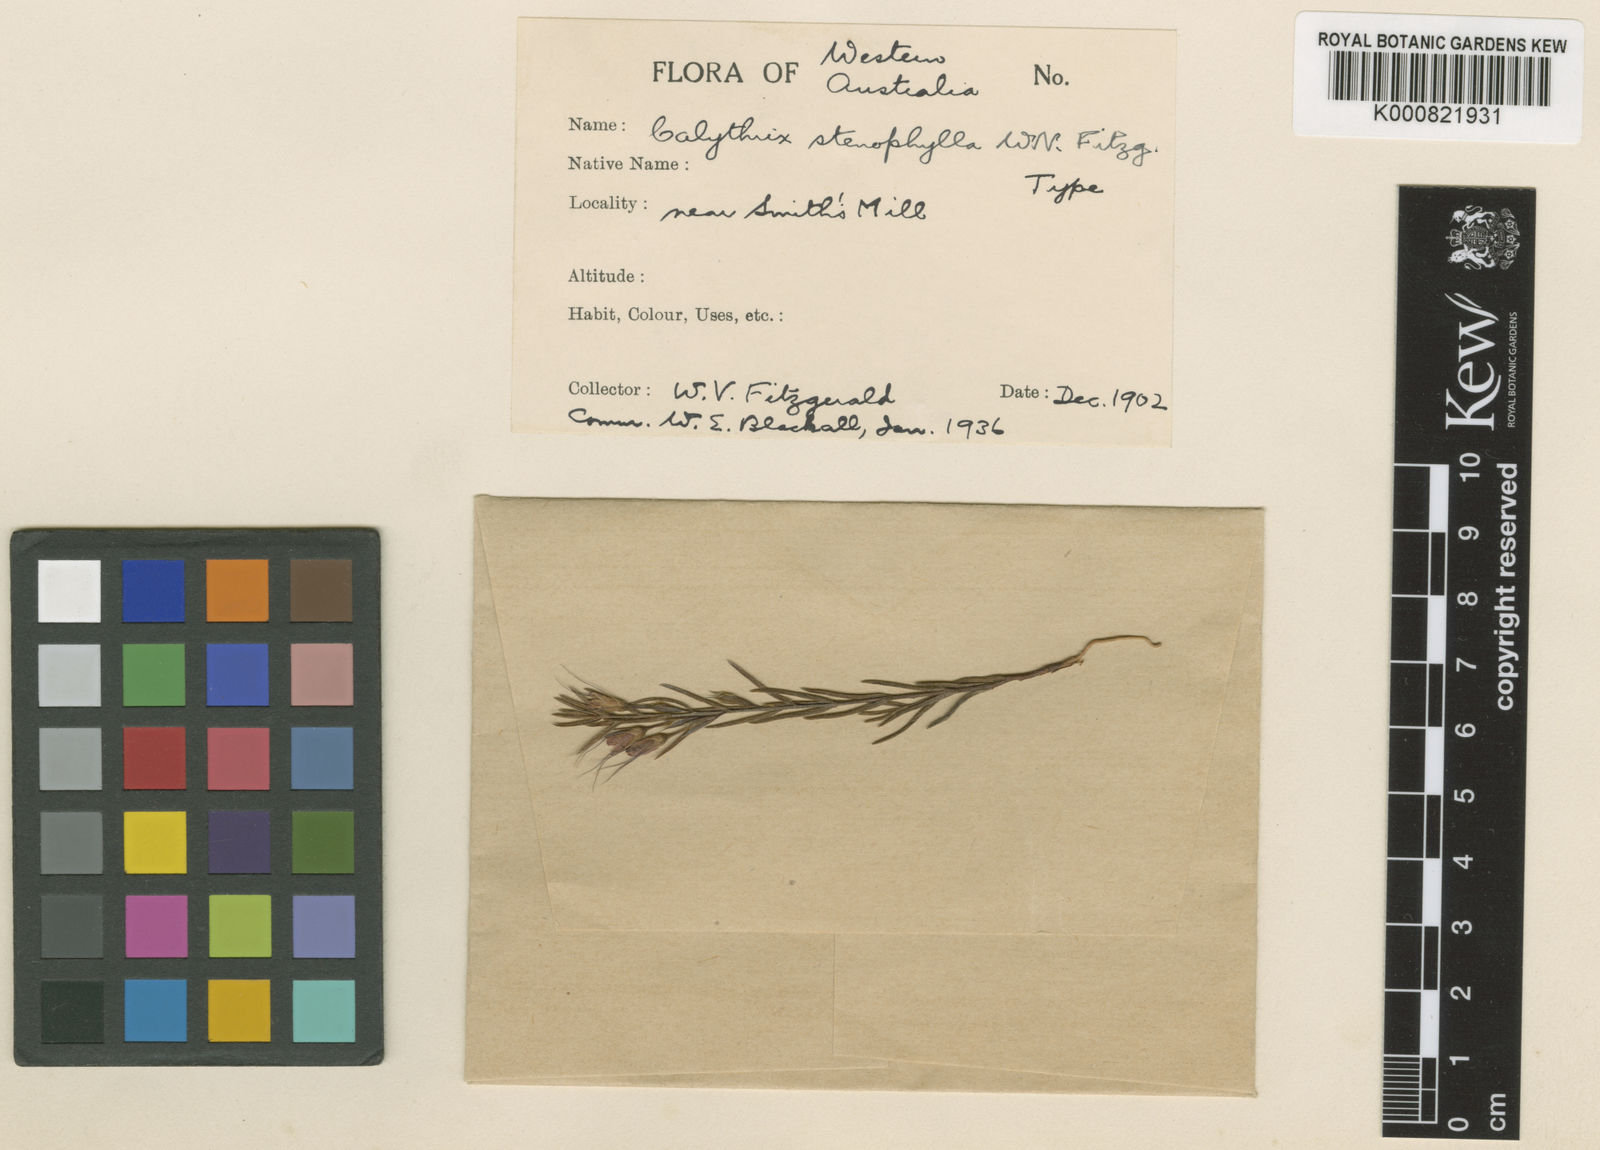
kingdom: Plantae
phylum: Tracheophyta
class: Magnoliopsida
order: Myrtales
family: Myrtaceae
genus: Calytrix
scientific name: Calytrix simplex
